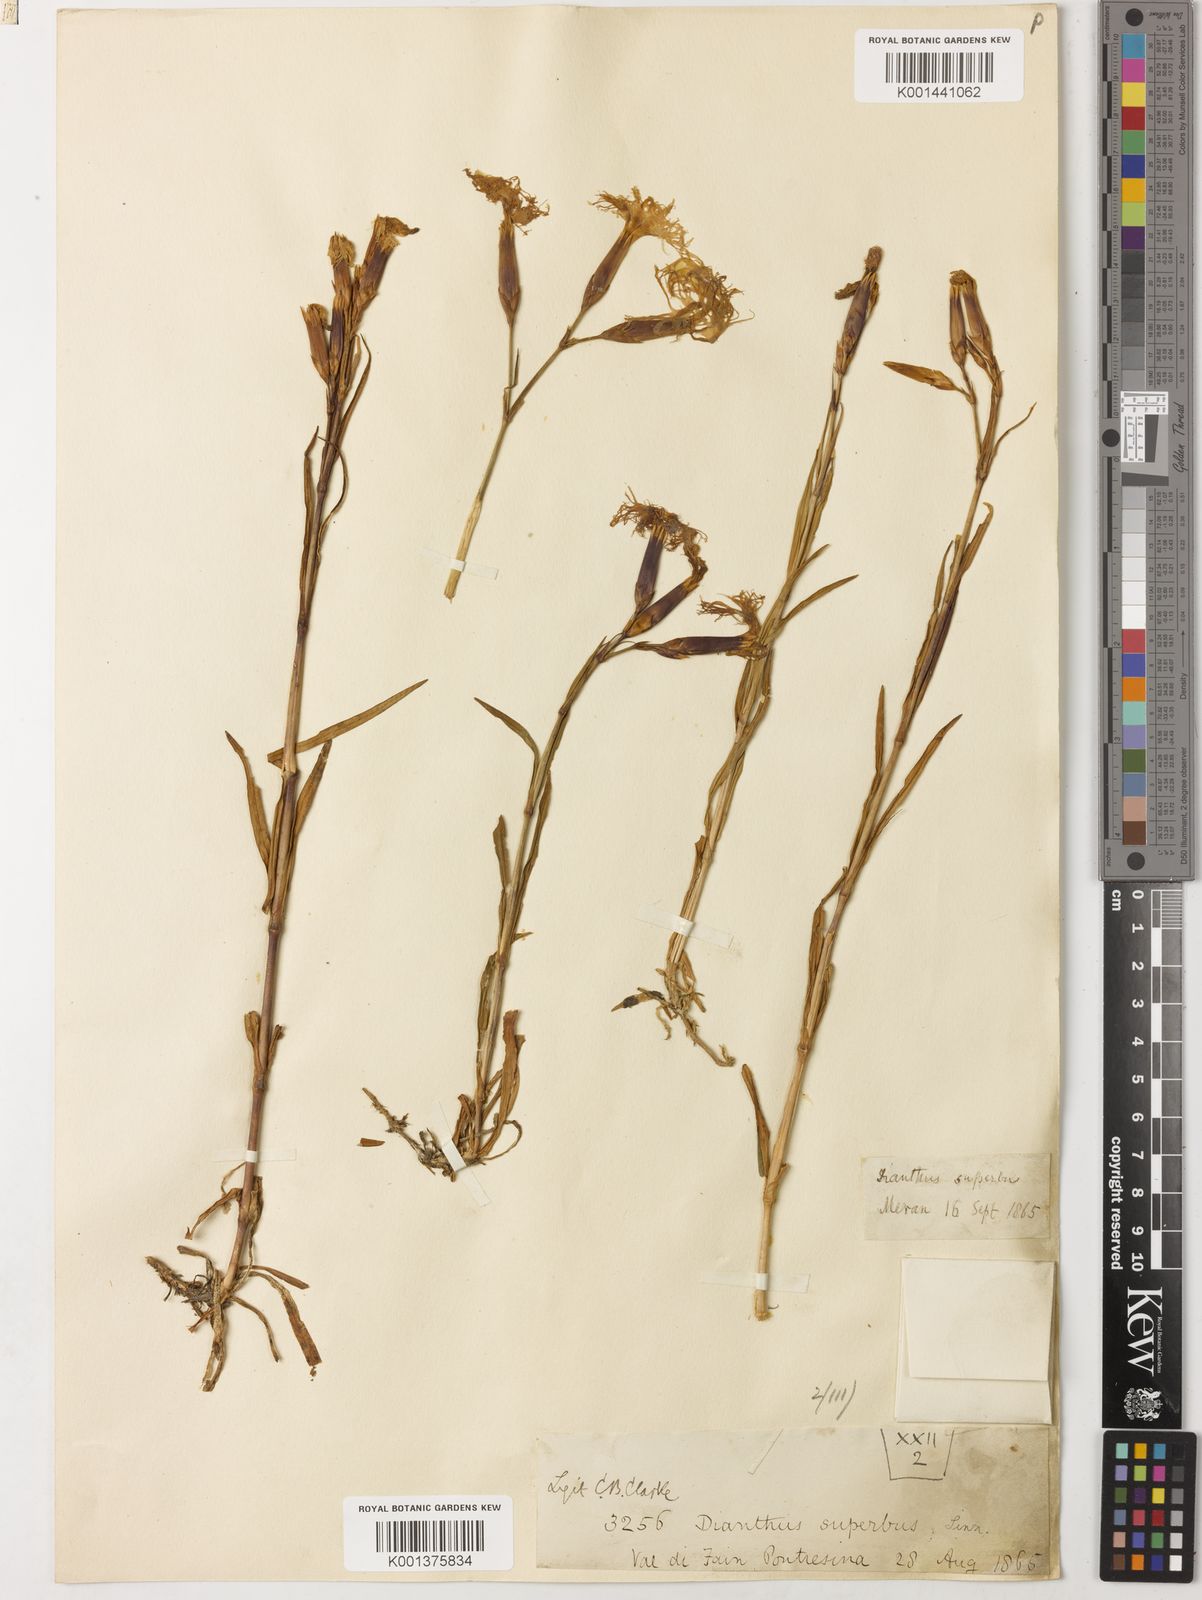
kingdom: Plantae
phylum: Tracheophyta
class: Magnoliopsida
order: Caryophyllales
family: Caryophyllaceae
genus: Dianthus
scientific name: Dianthus superbus
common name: Fringed pink
